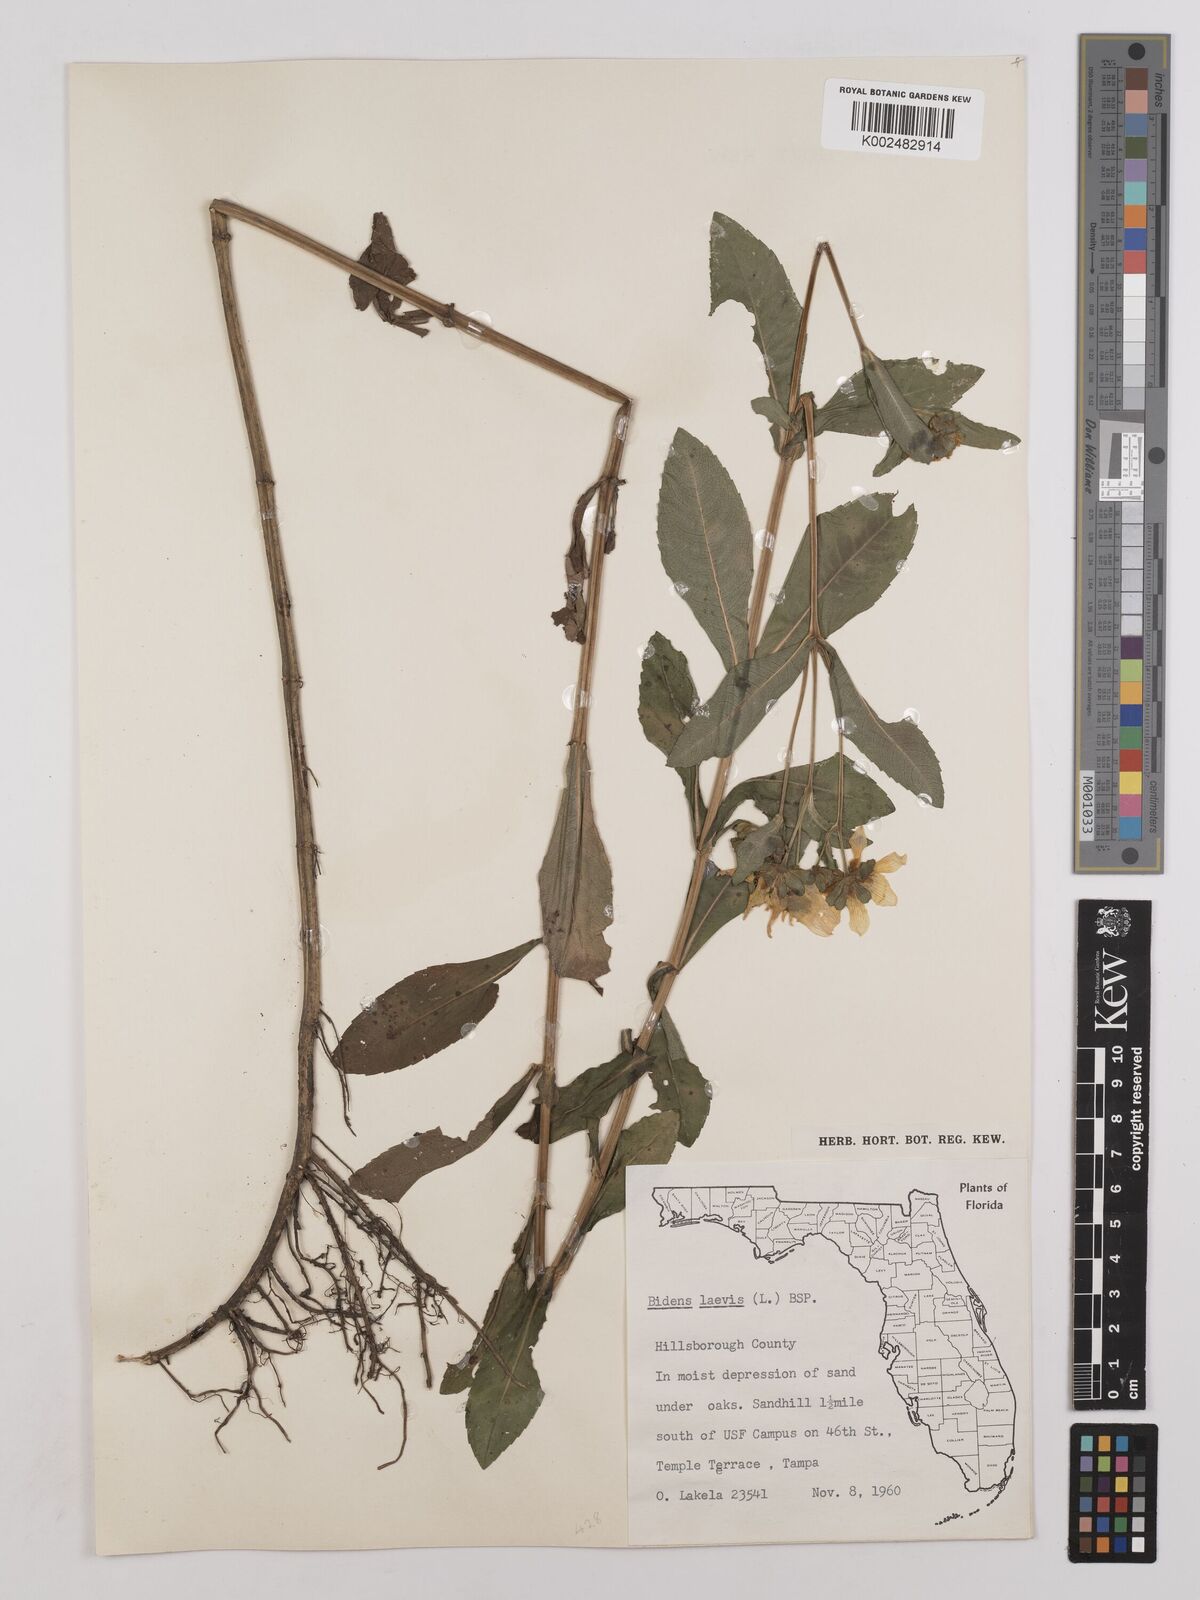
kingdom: Plantae
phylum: Tracheophyta
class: Magnoliopsida
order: Asterales
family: Asteraceae
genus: Bidens
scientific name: Bidens
